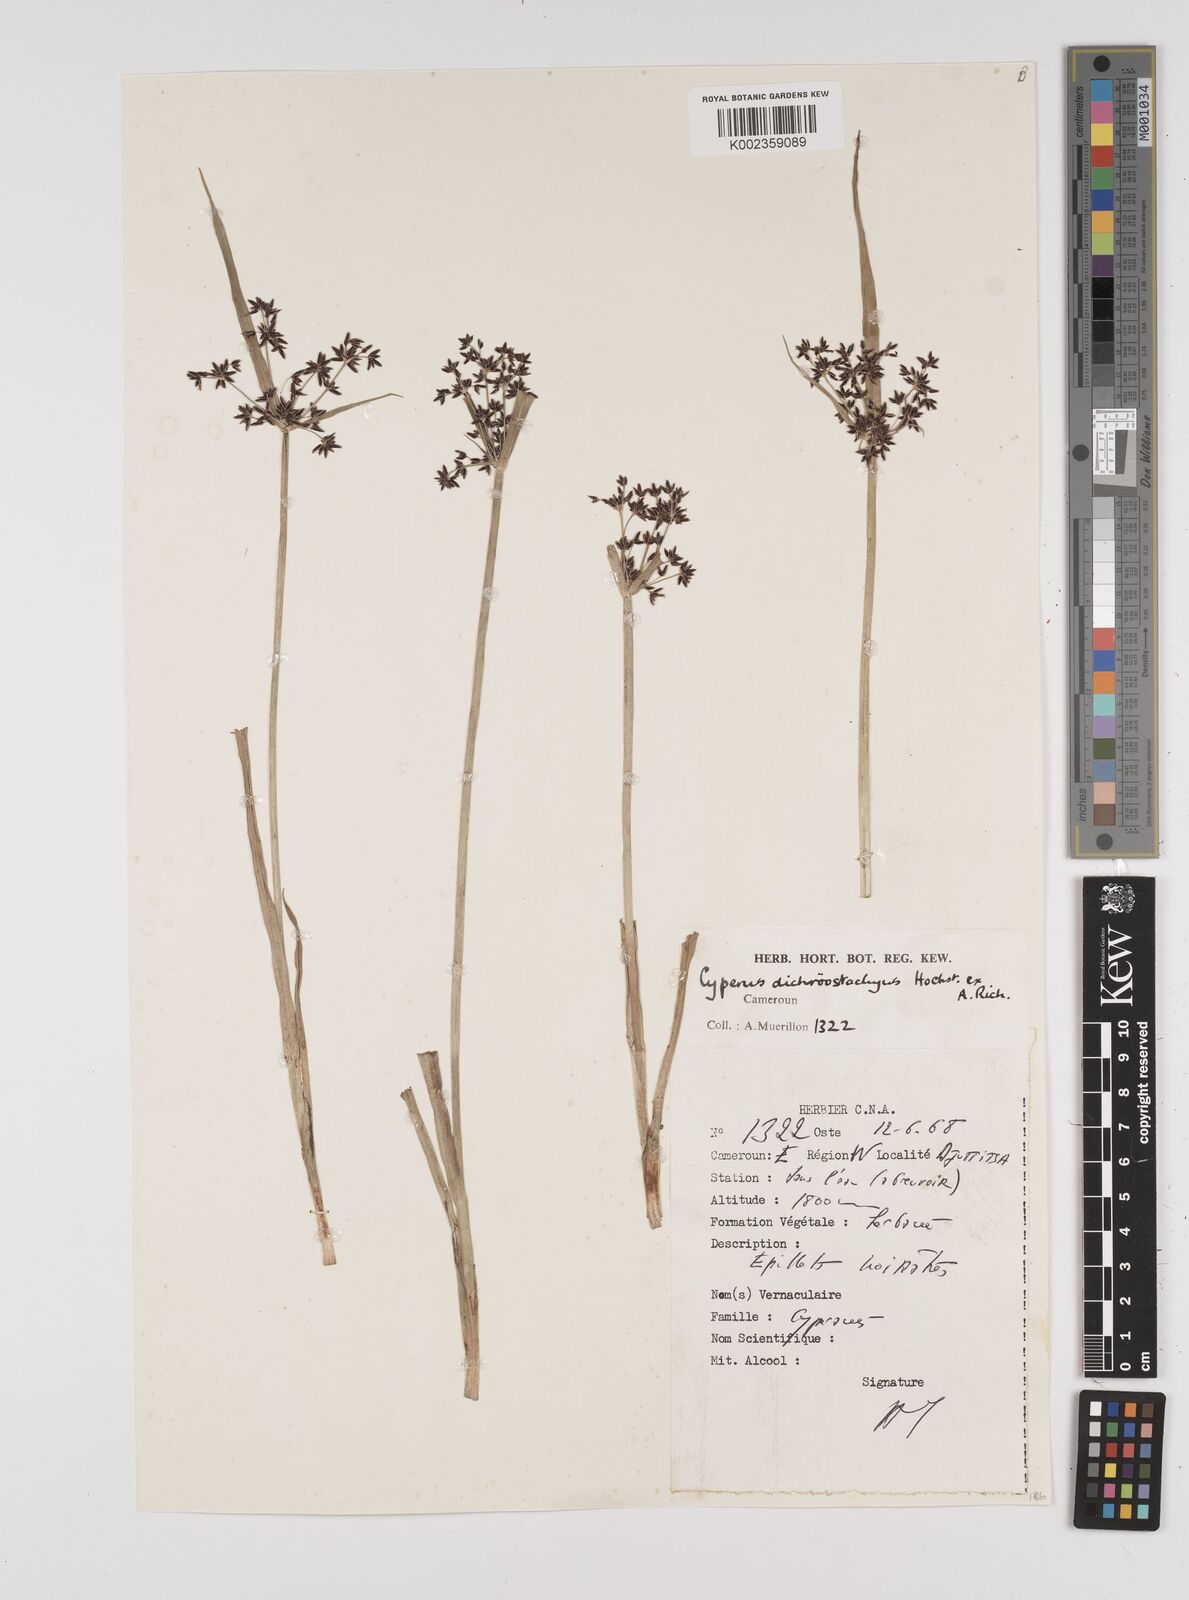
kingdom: Plantae
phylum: Tracheophyta
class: Liliopsida
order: Poales
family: Cyperaceae
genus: Cyperus
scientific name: Cyperus dichrostachyus
